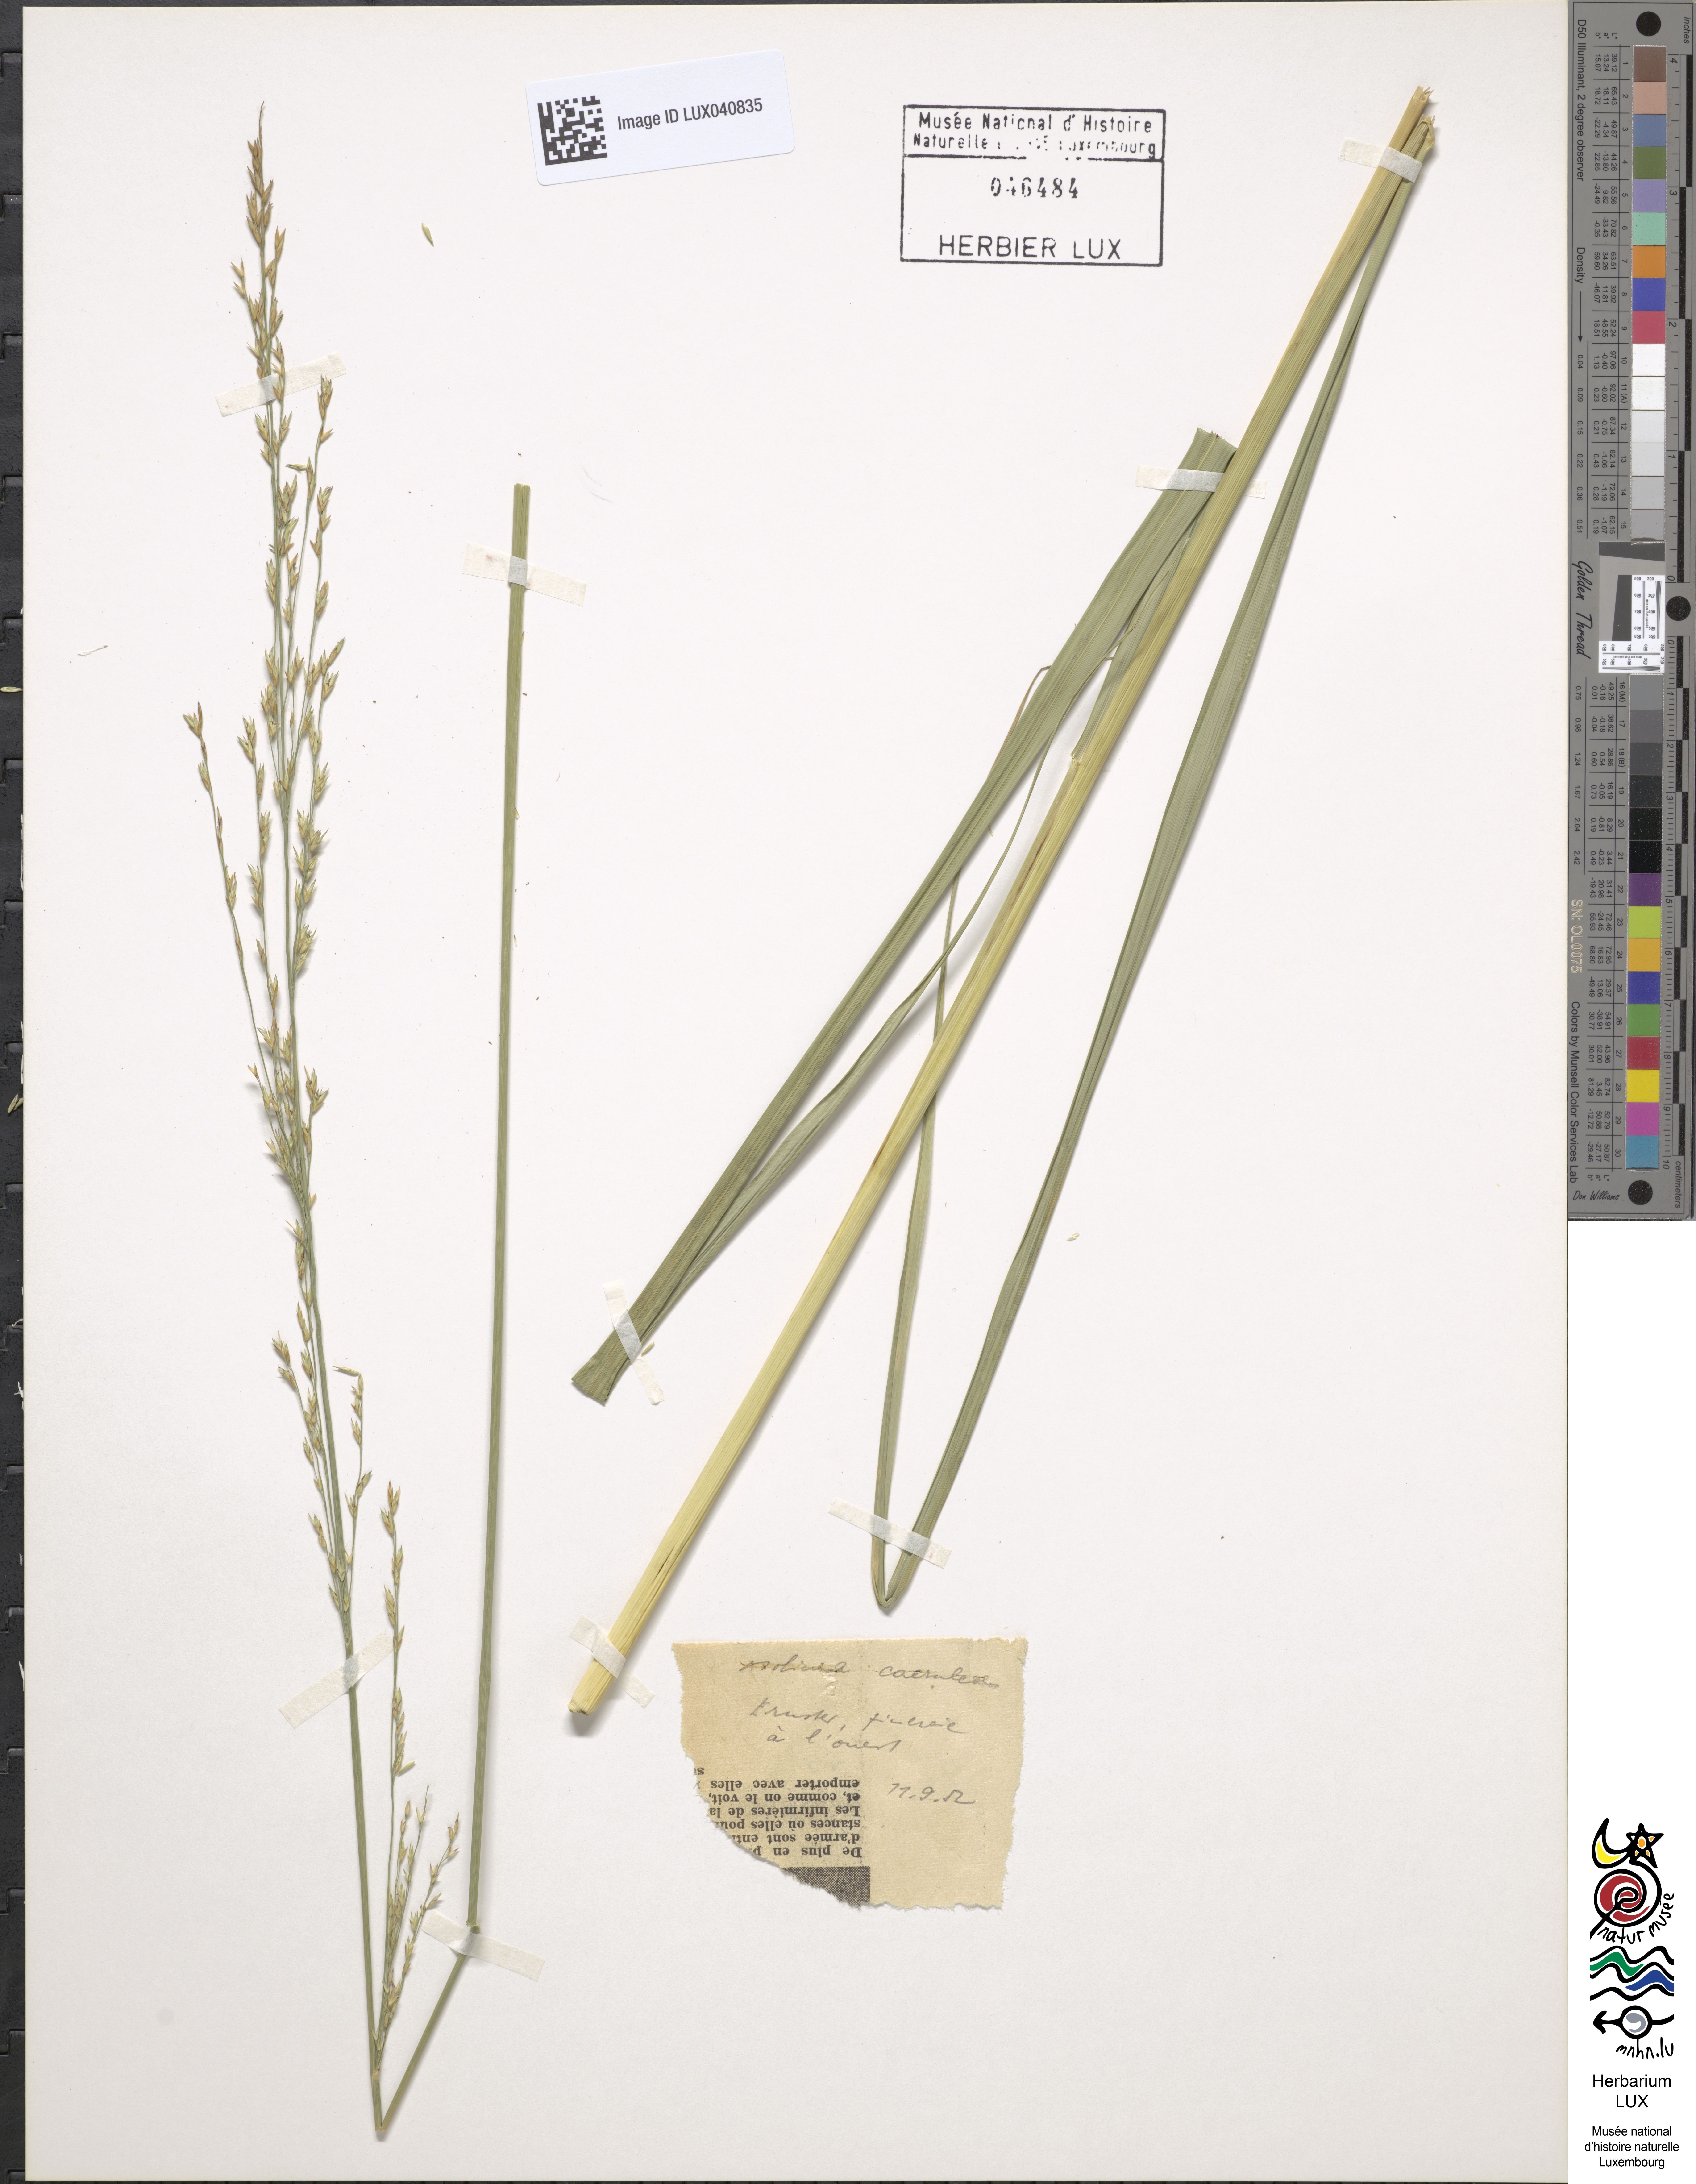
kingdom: Plantae
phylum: Tracheophyta
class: Liliopsida
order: Poales
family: Poaceae
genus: Molinia
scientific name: Molinia caerulea
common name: Purple moor-grass
